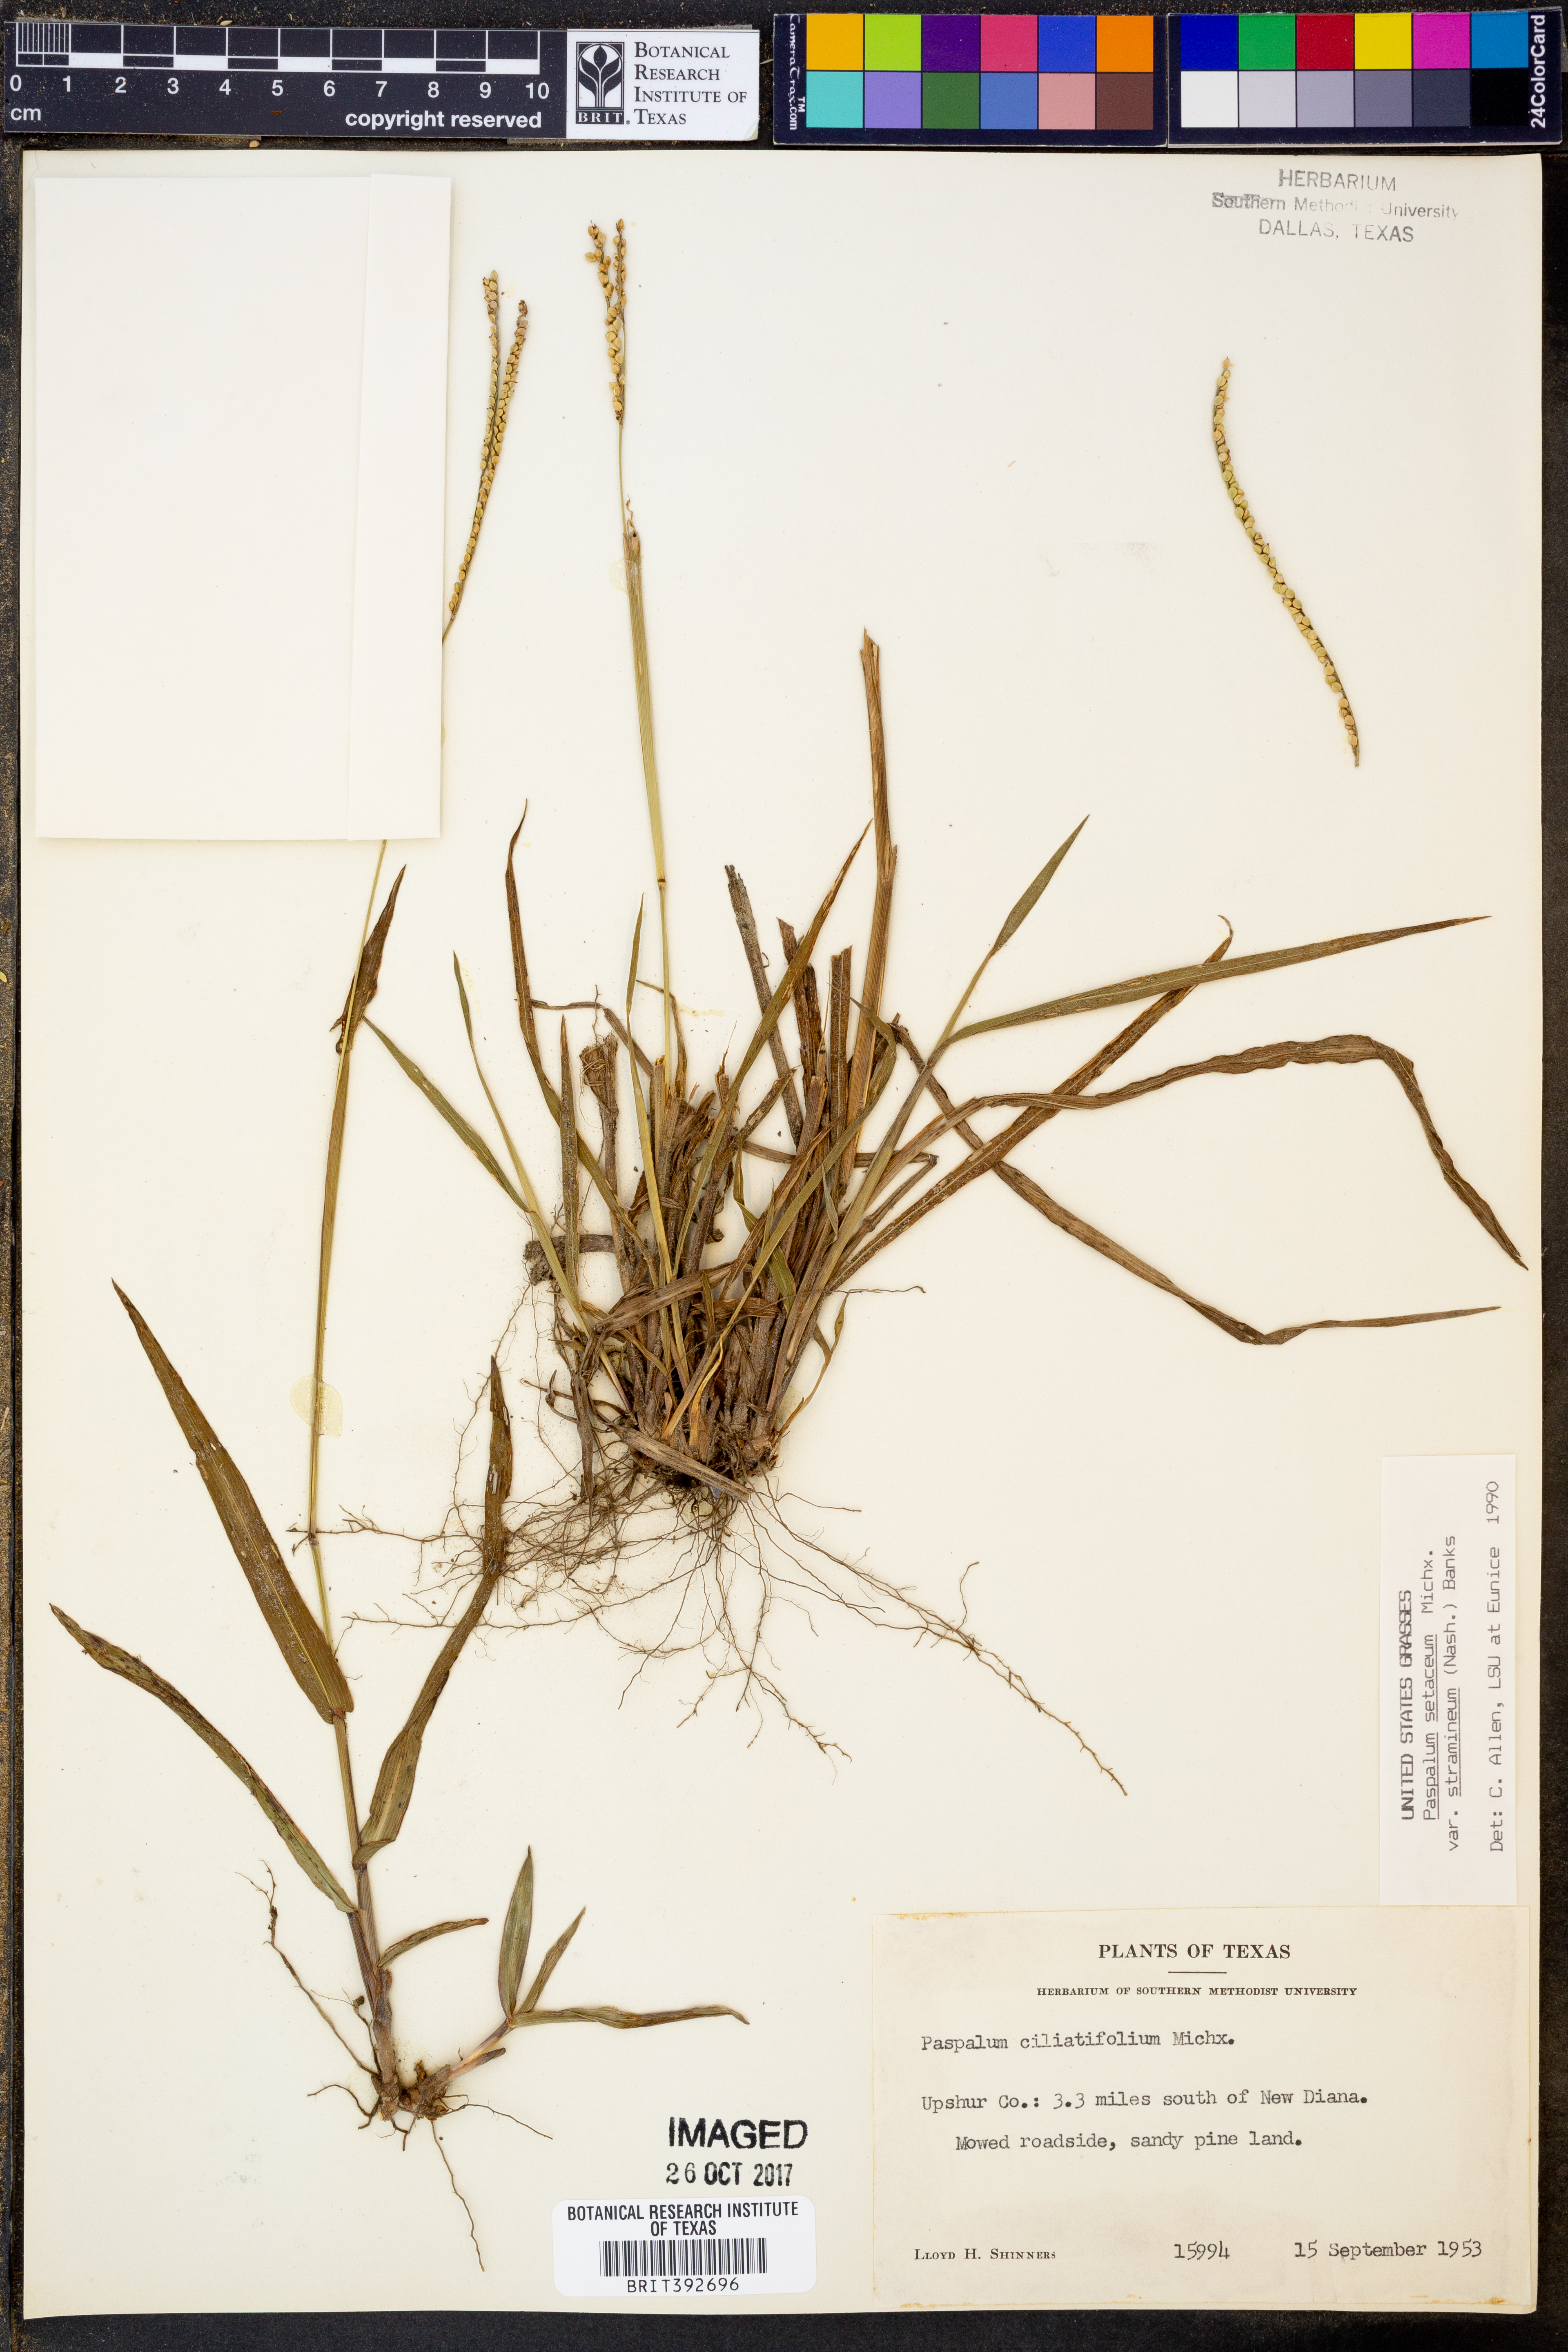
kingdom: Plantae
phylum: Tracheophyta
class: Liliopsida
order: Poales
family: Poaceae
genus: Paspalum
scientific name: Paspalum setaceum
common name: Slender paspalum
